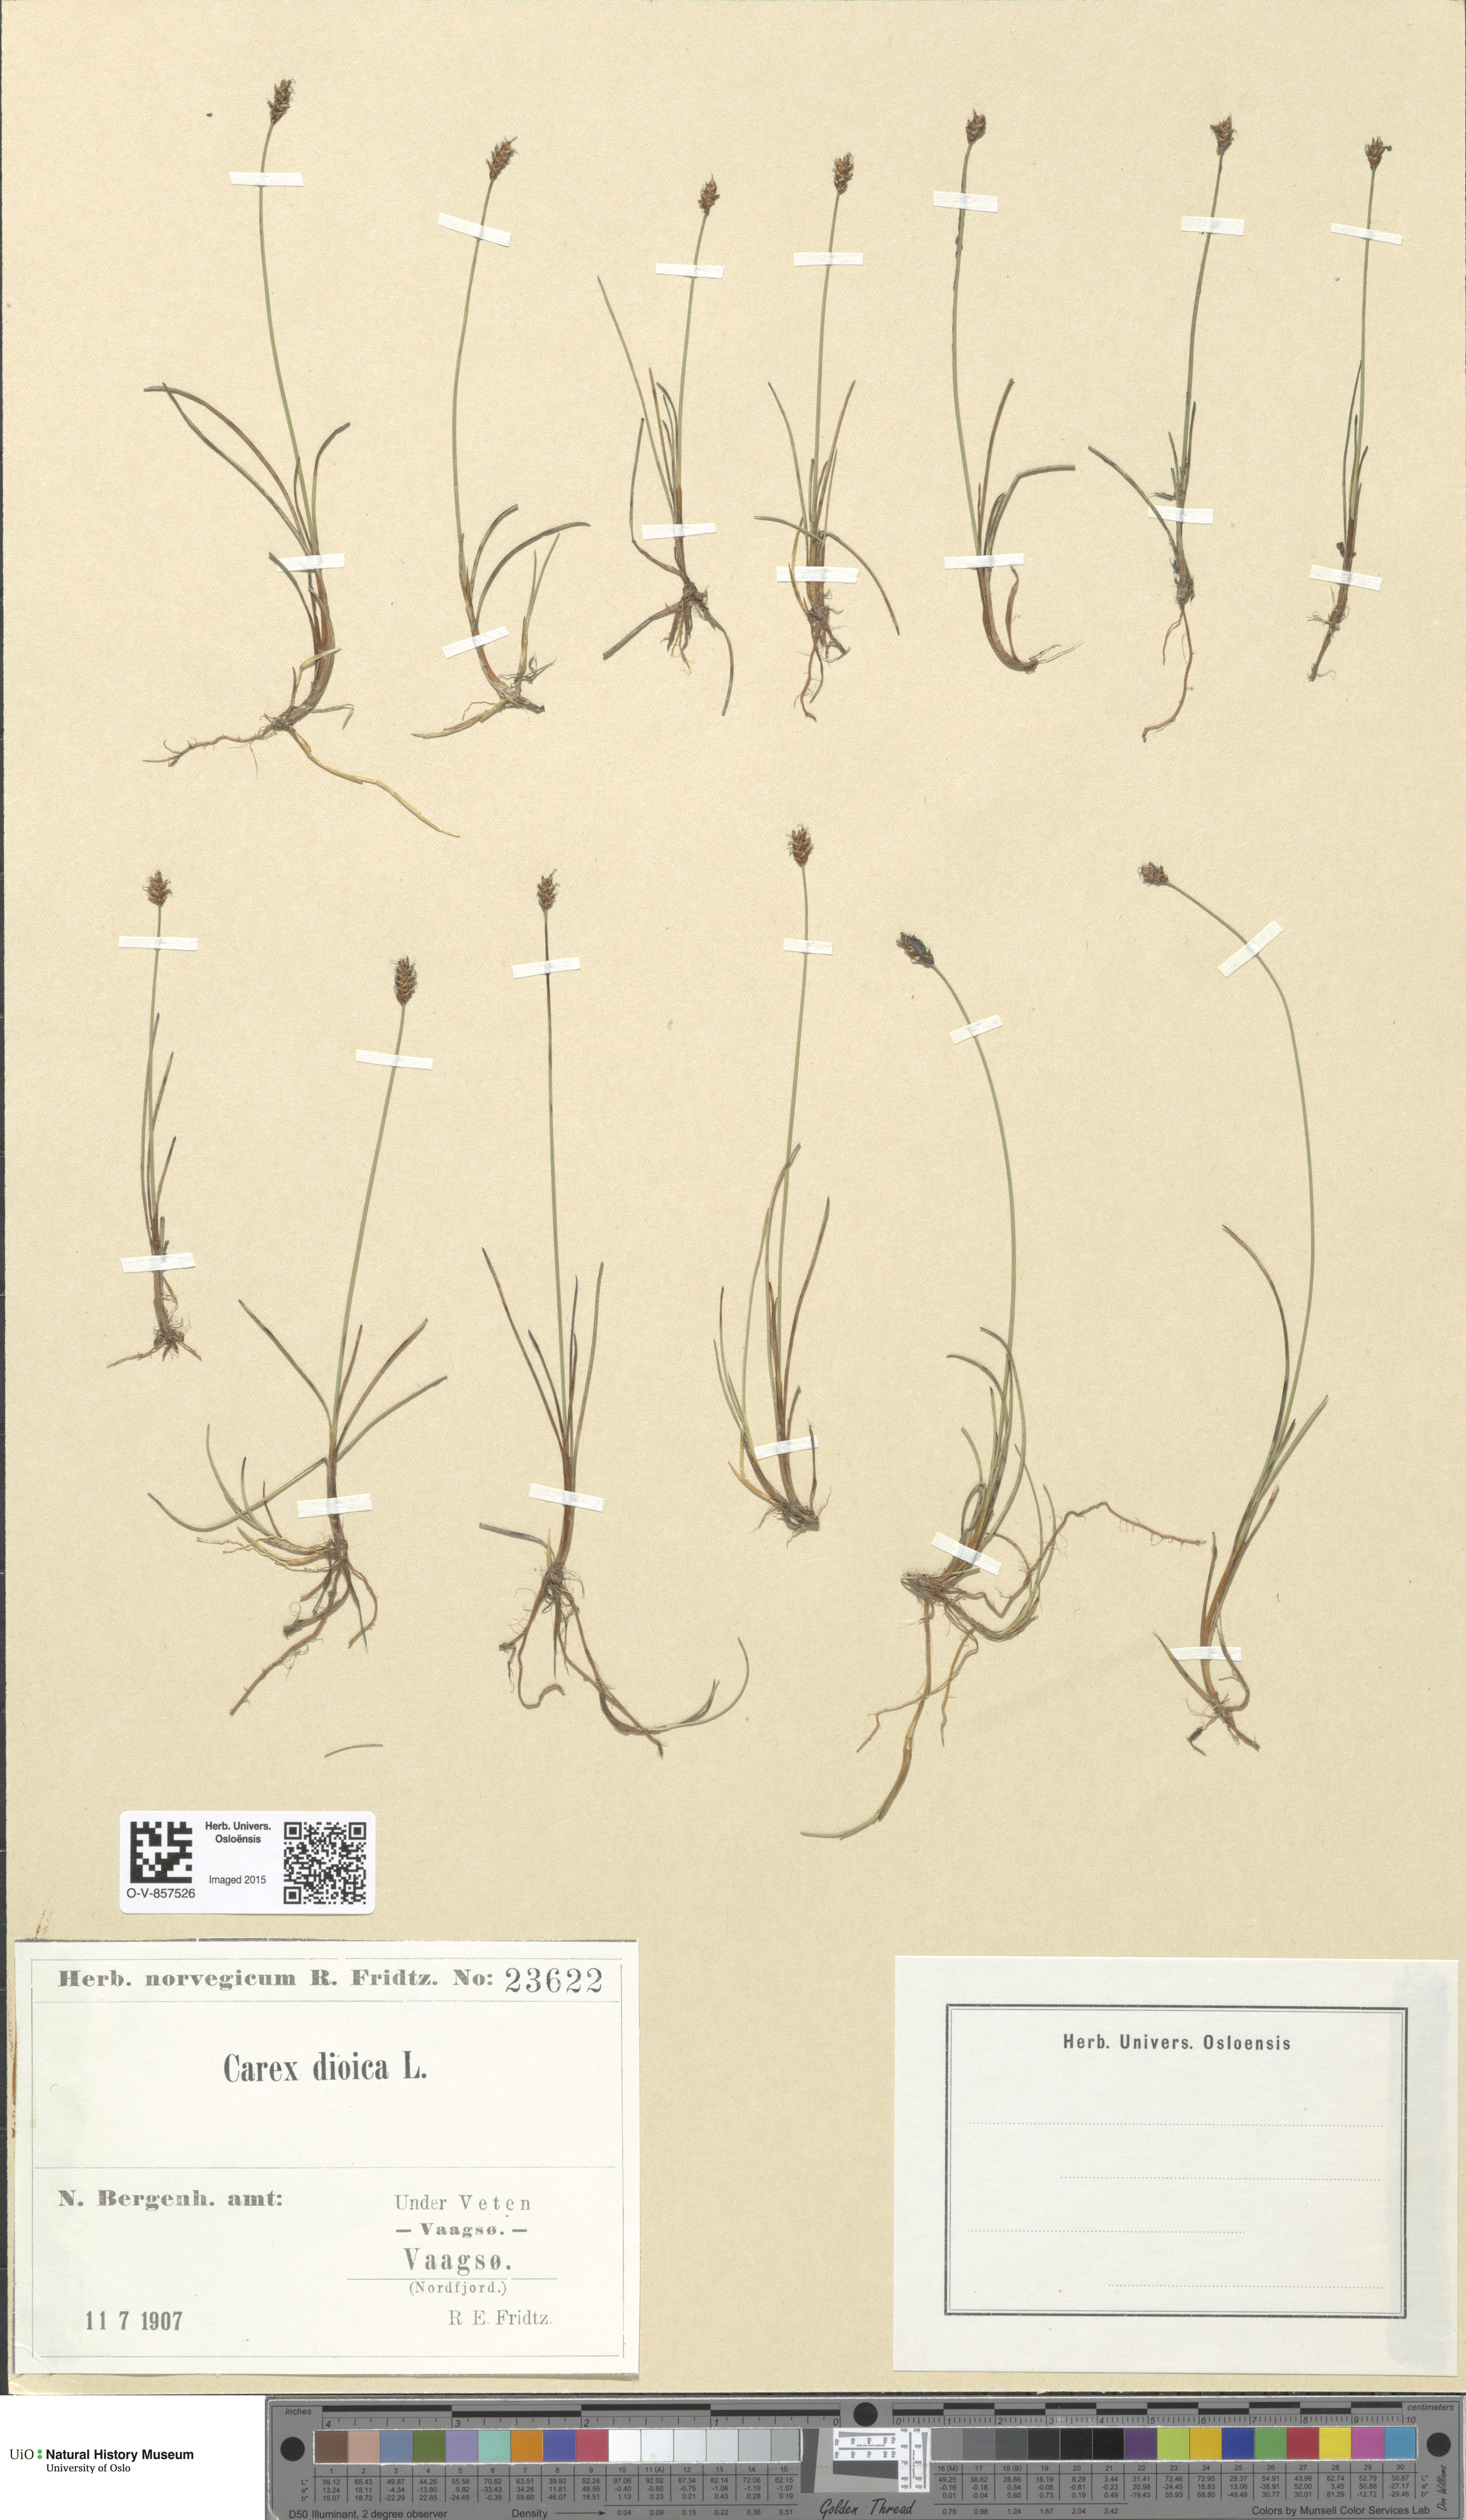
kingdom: Plantae
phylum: Tracheophyta
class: Liliopsida
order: Poales
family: Cyperaceae
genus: Carex
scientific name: Carex dioica
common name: Dioecious sedge
